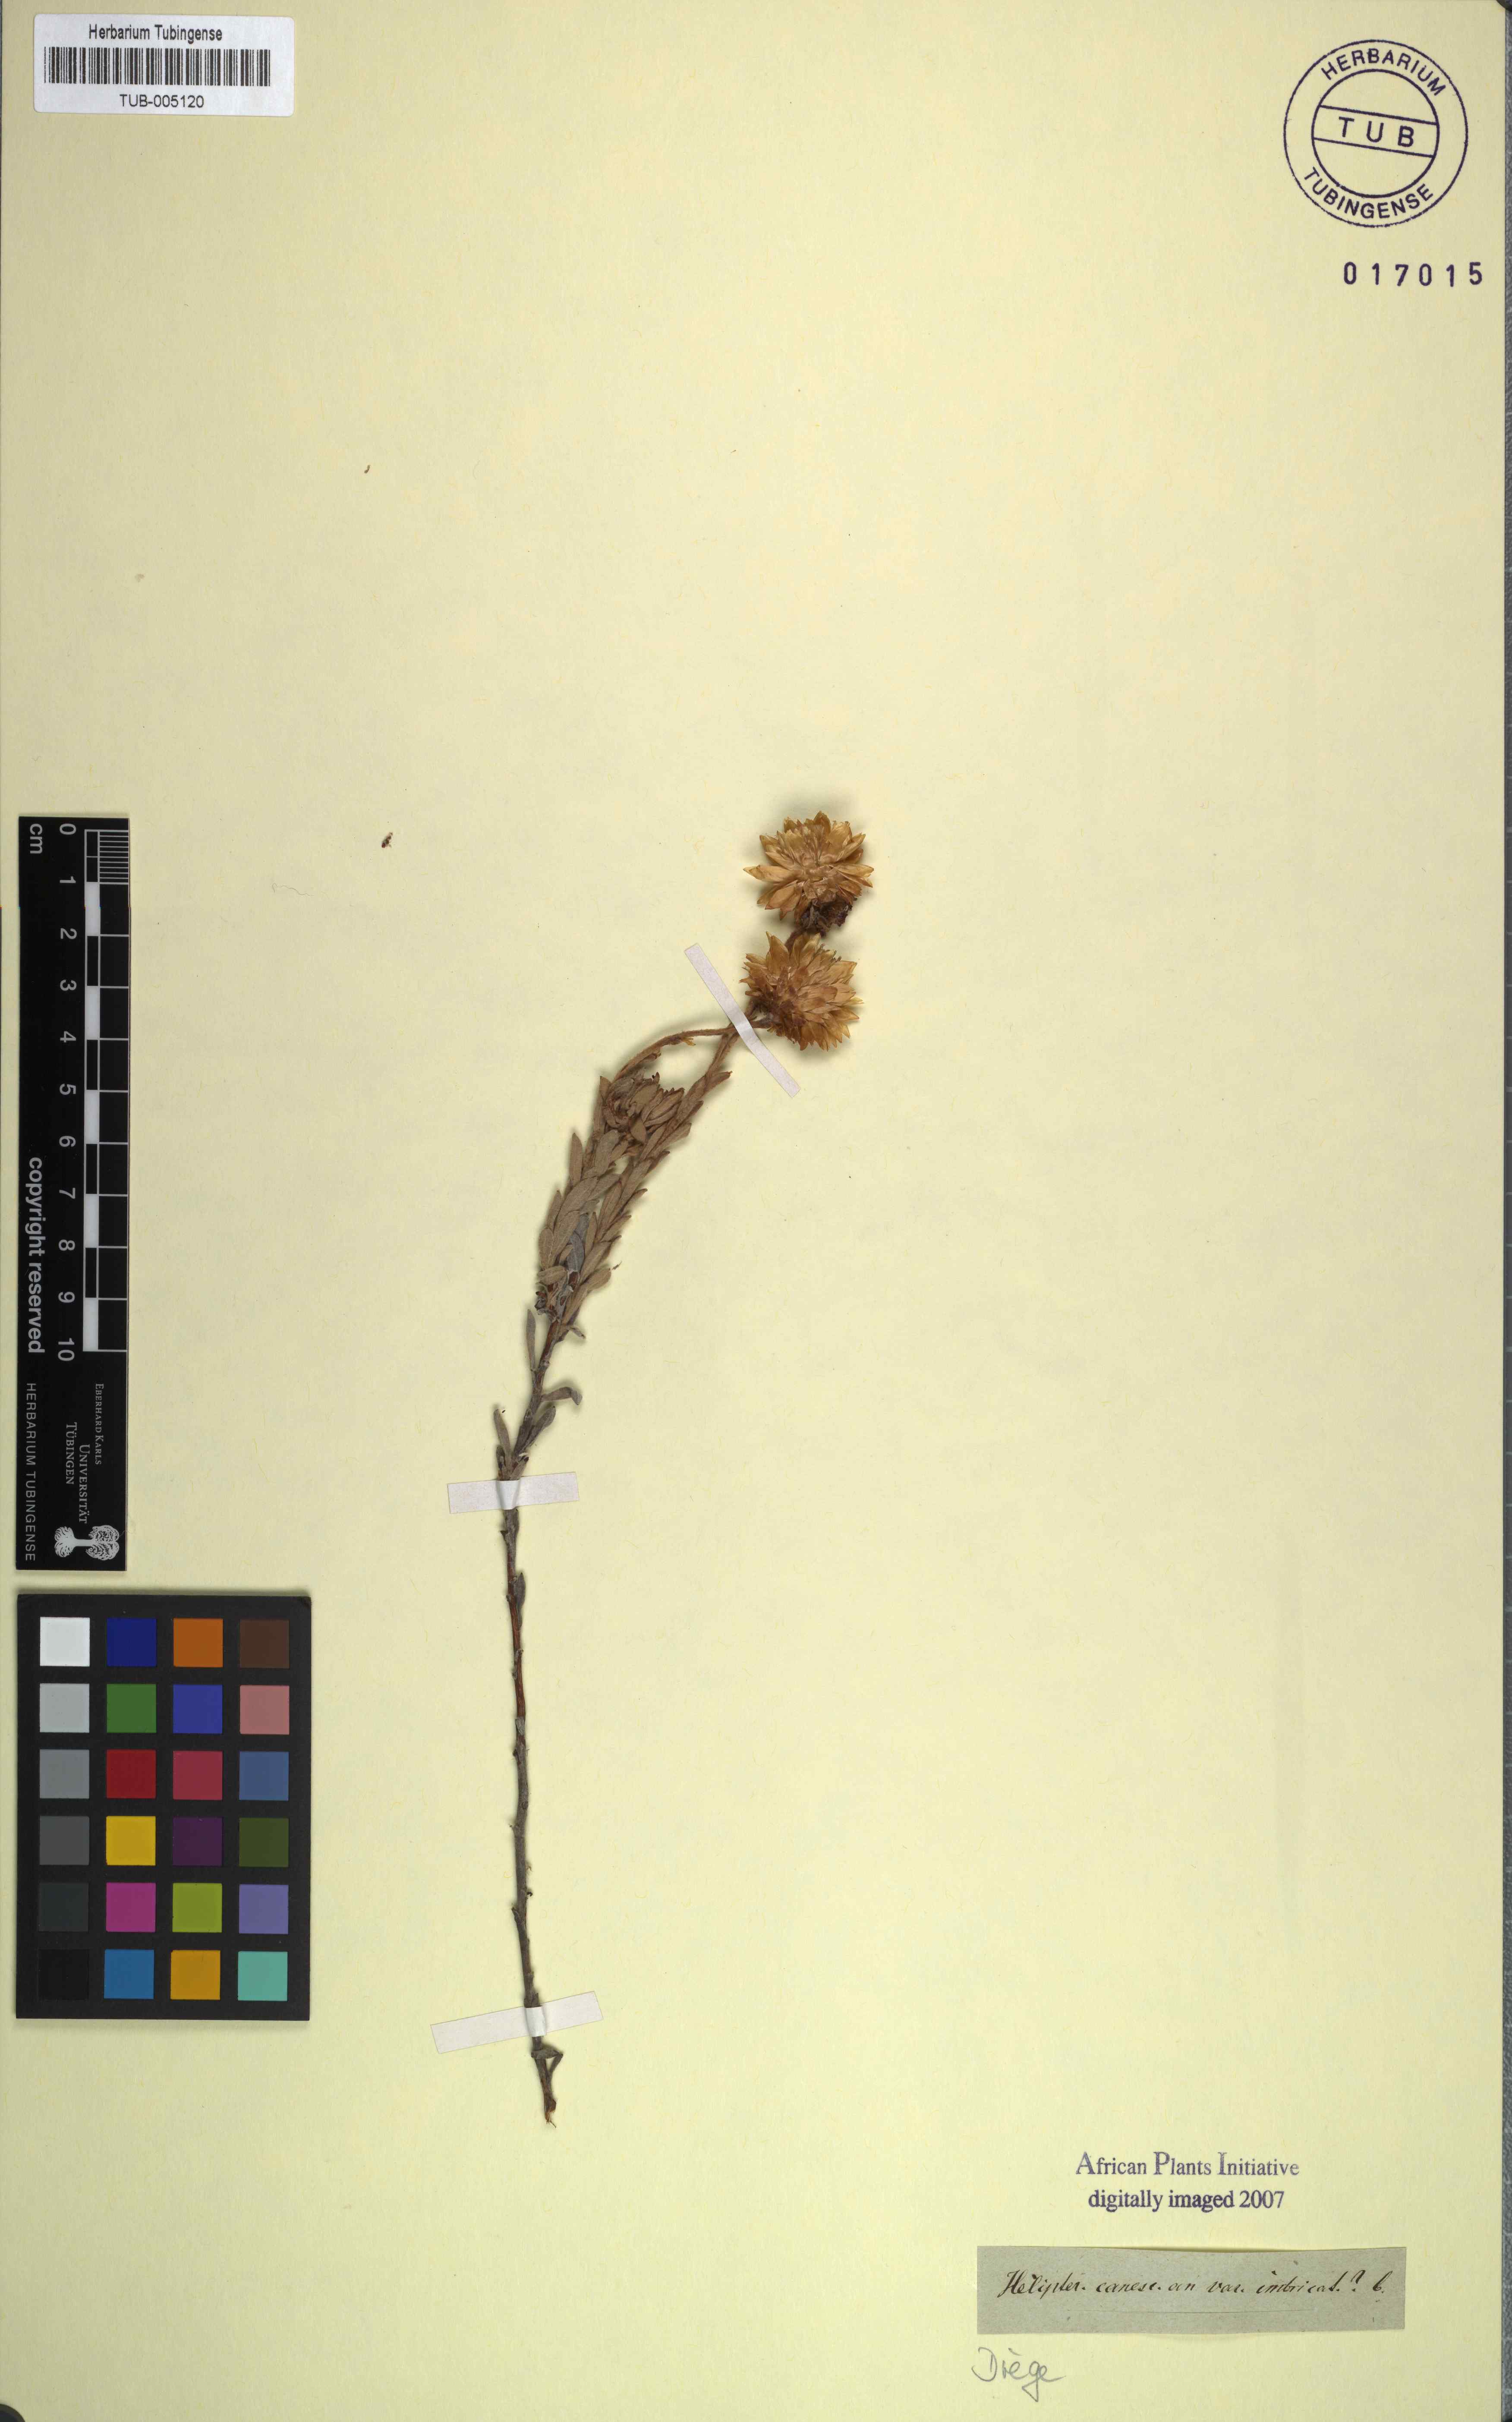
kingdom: Plantae
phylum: Tracheophyta
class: Magnoliopsida
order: Asterales
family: Asteraceae
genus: Syncarpha
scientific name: Syncarpha canescens
